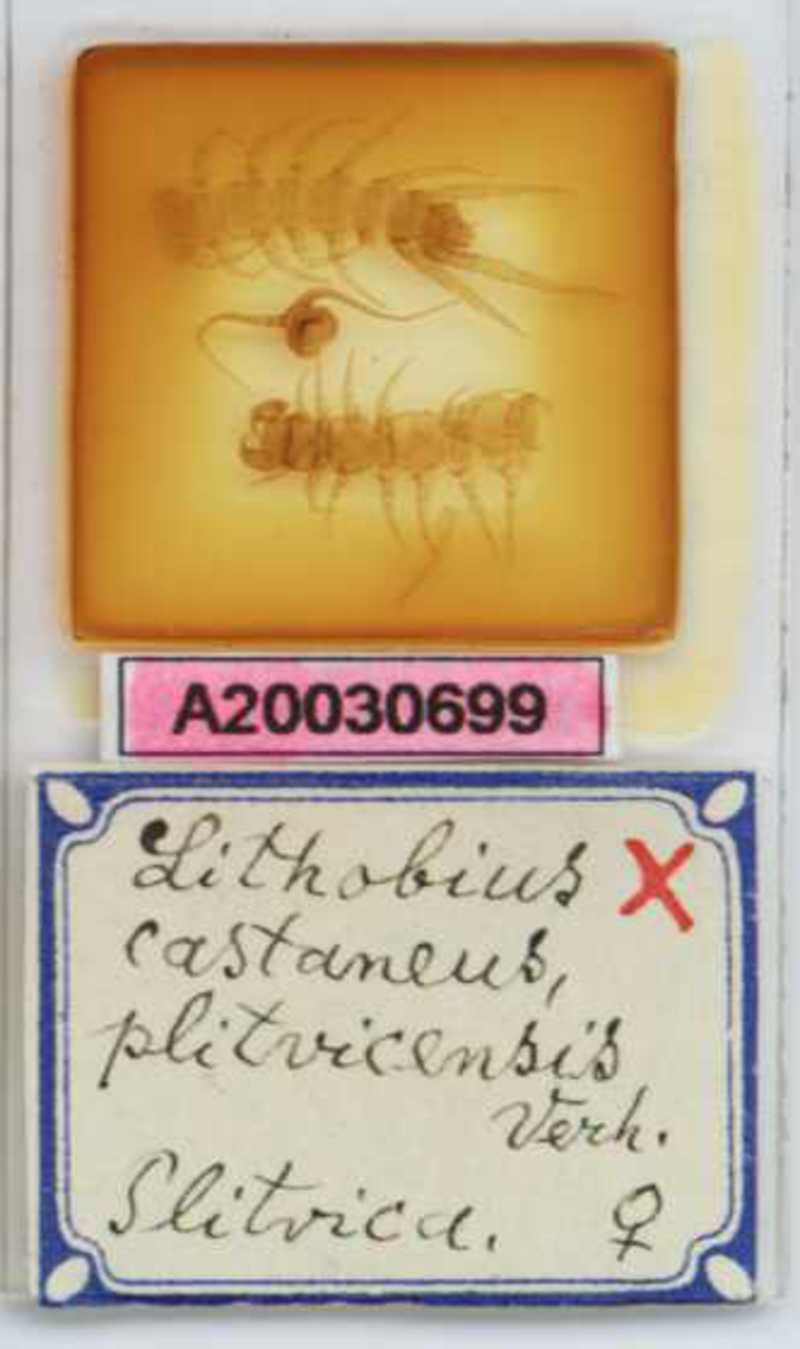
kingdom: Animalia
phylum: Arthropoda
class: Chilopoda
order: Lithobiomorpha
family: Lithobiidae
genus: Lithobius
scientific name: Lithobius castaneus
